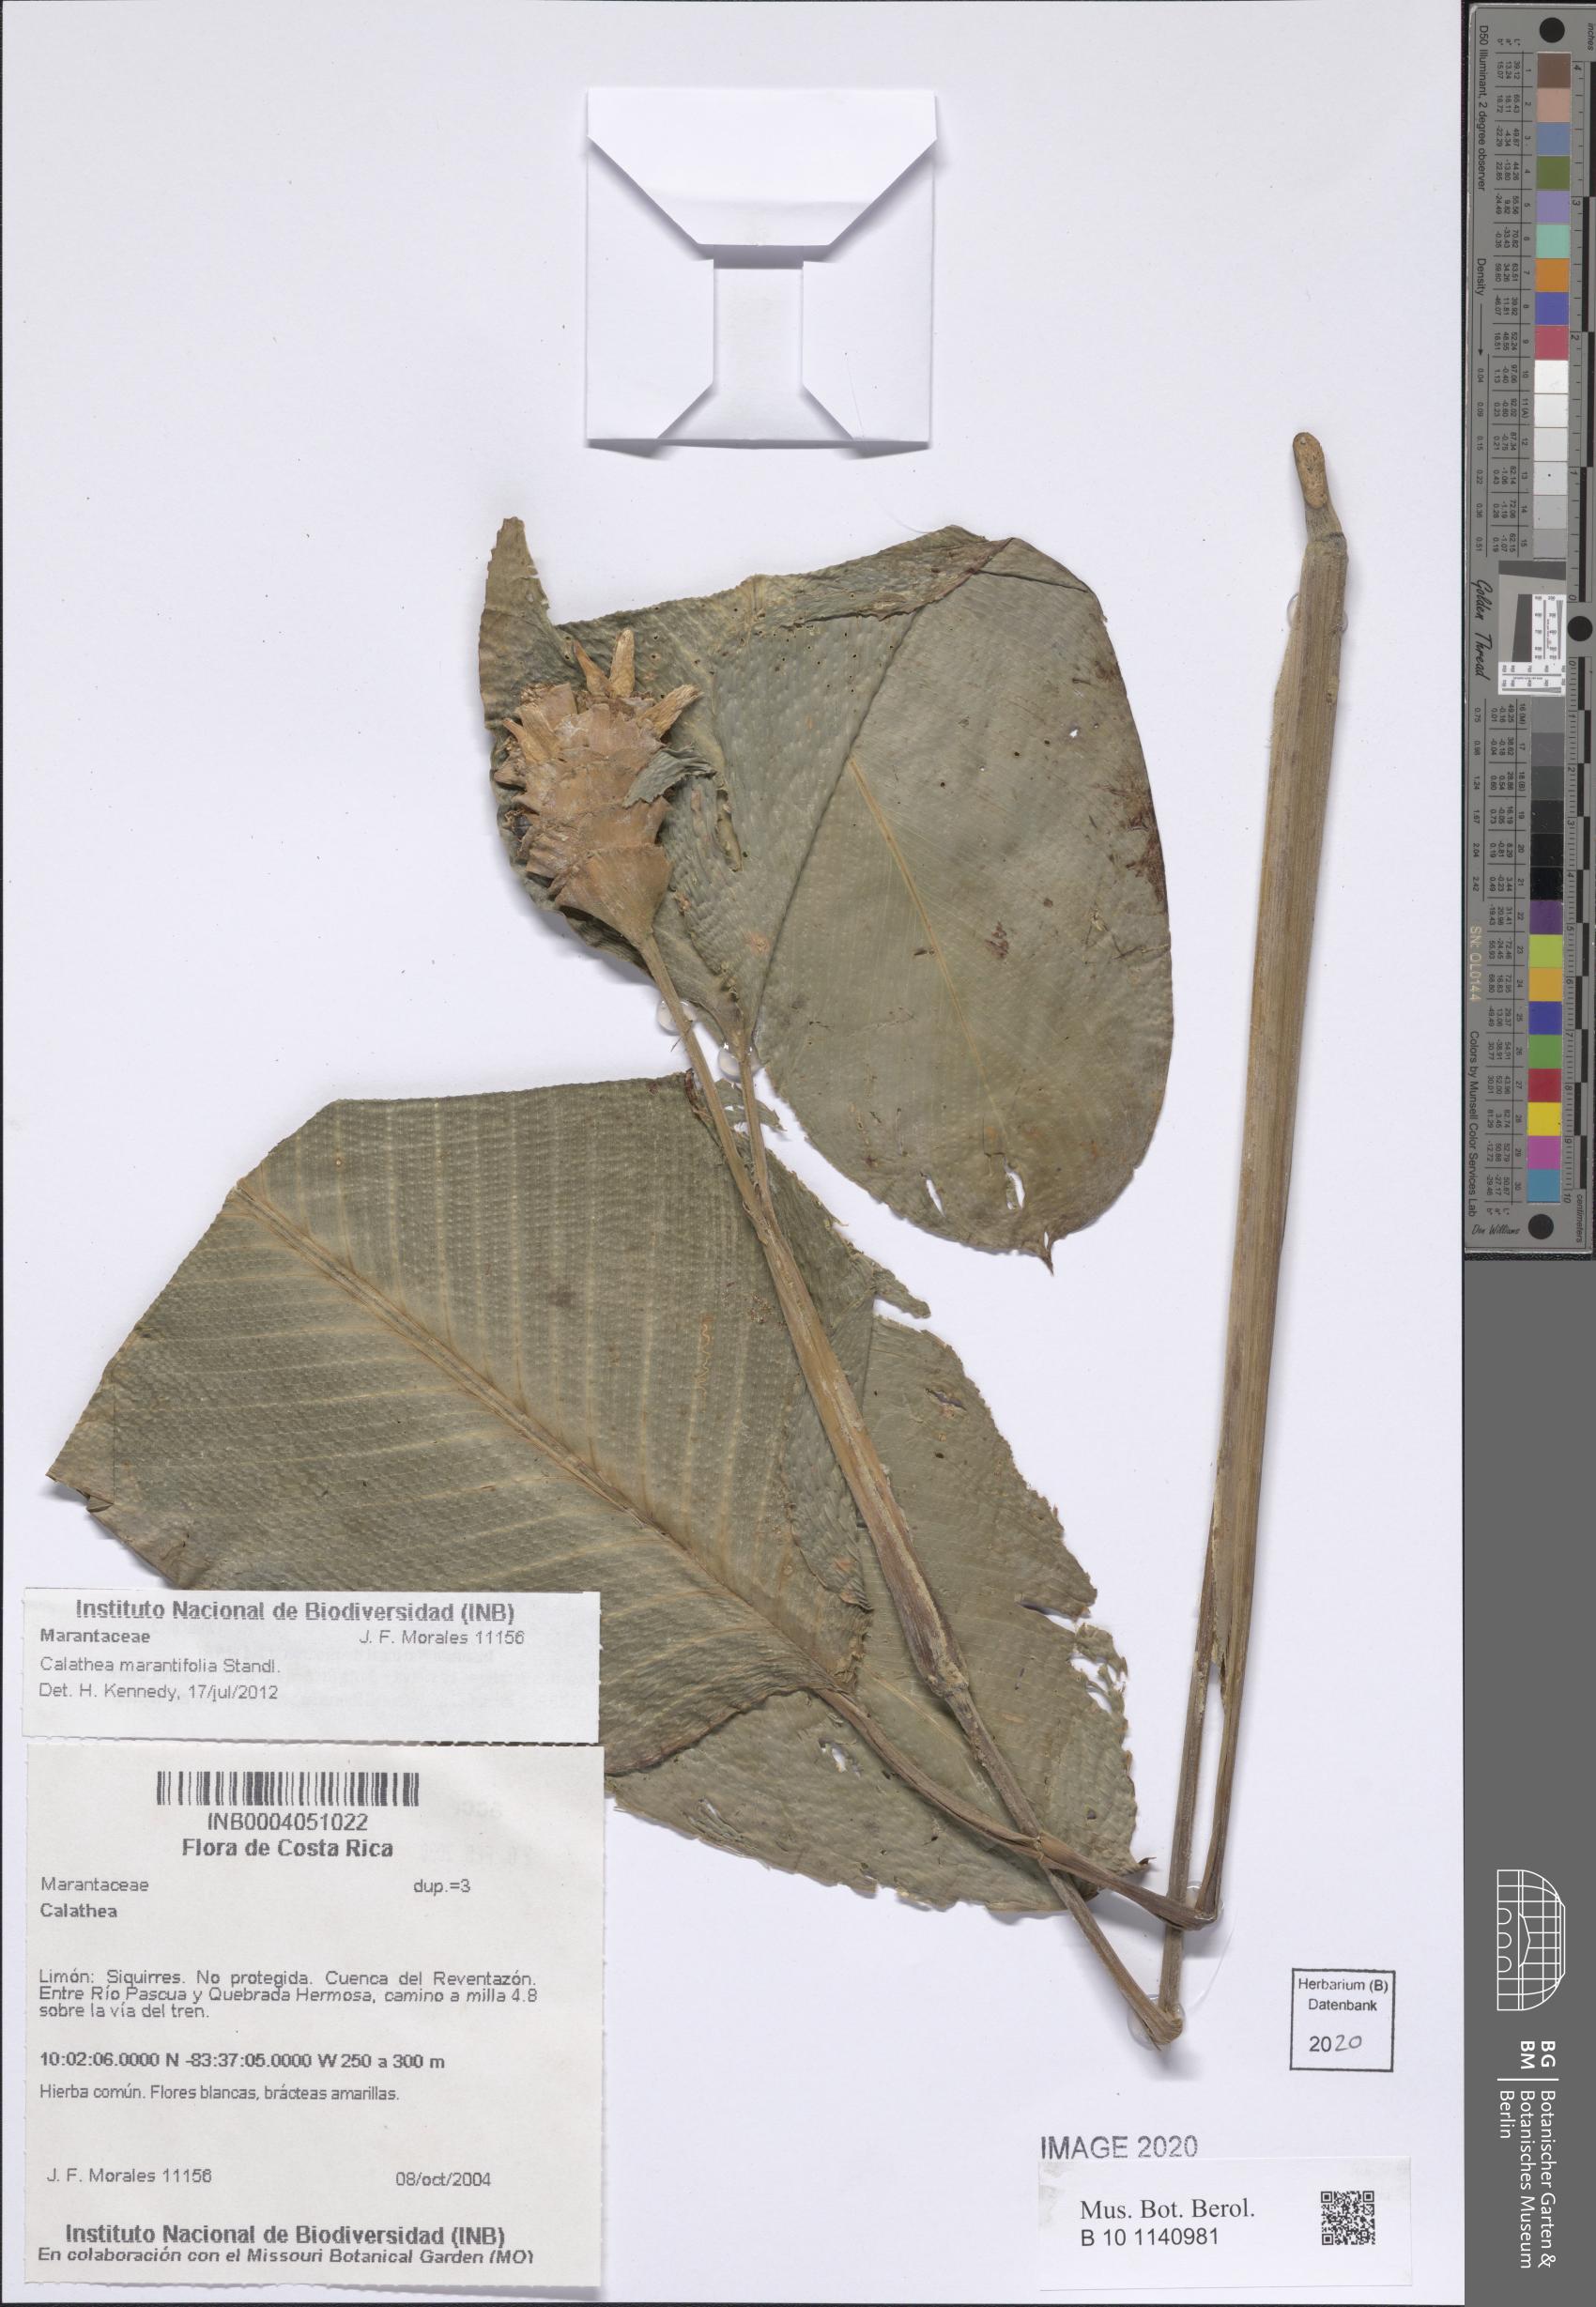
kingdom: Plantae
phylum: Tracheophyta
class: Liliopsida
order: Zingiberales
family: Marantaceae
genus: Goeppertia
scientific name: Goeppertia marantifolia
